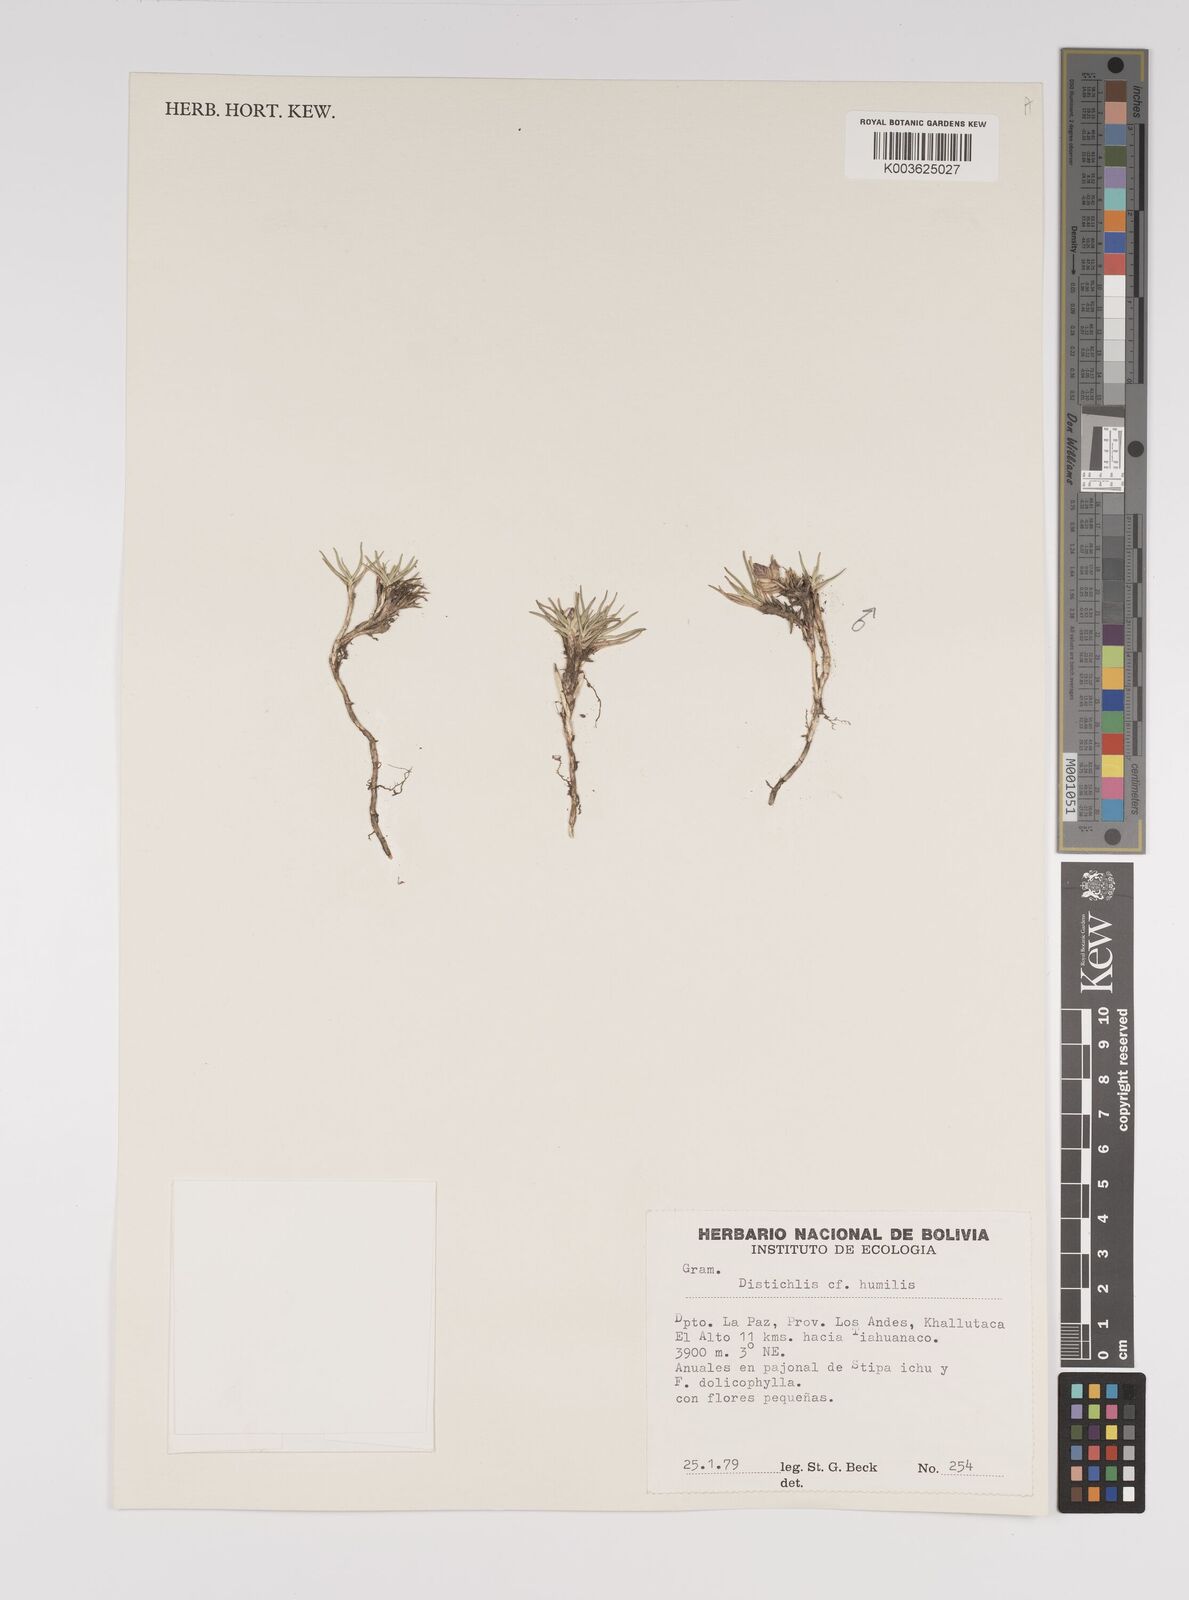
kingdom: Plantae
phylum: Tracheophyta
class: Liliopsida
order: Poales
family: Poaceae
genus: Distichlis
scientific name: Distichlis humilis
